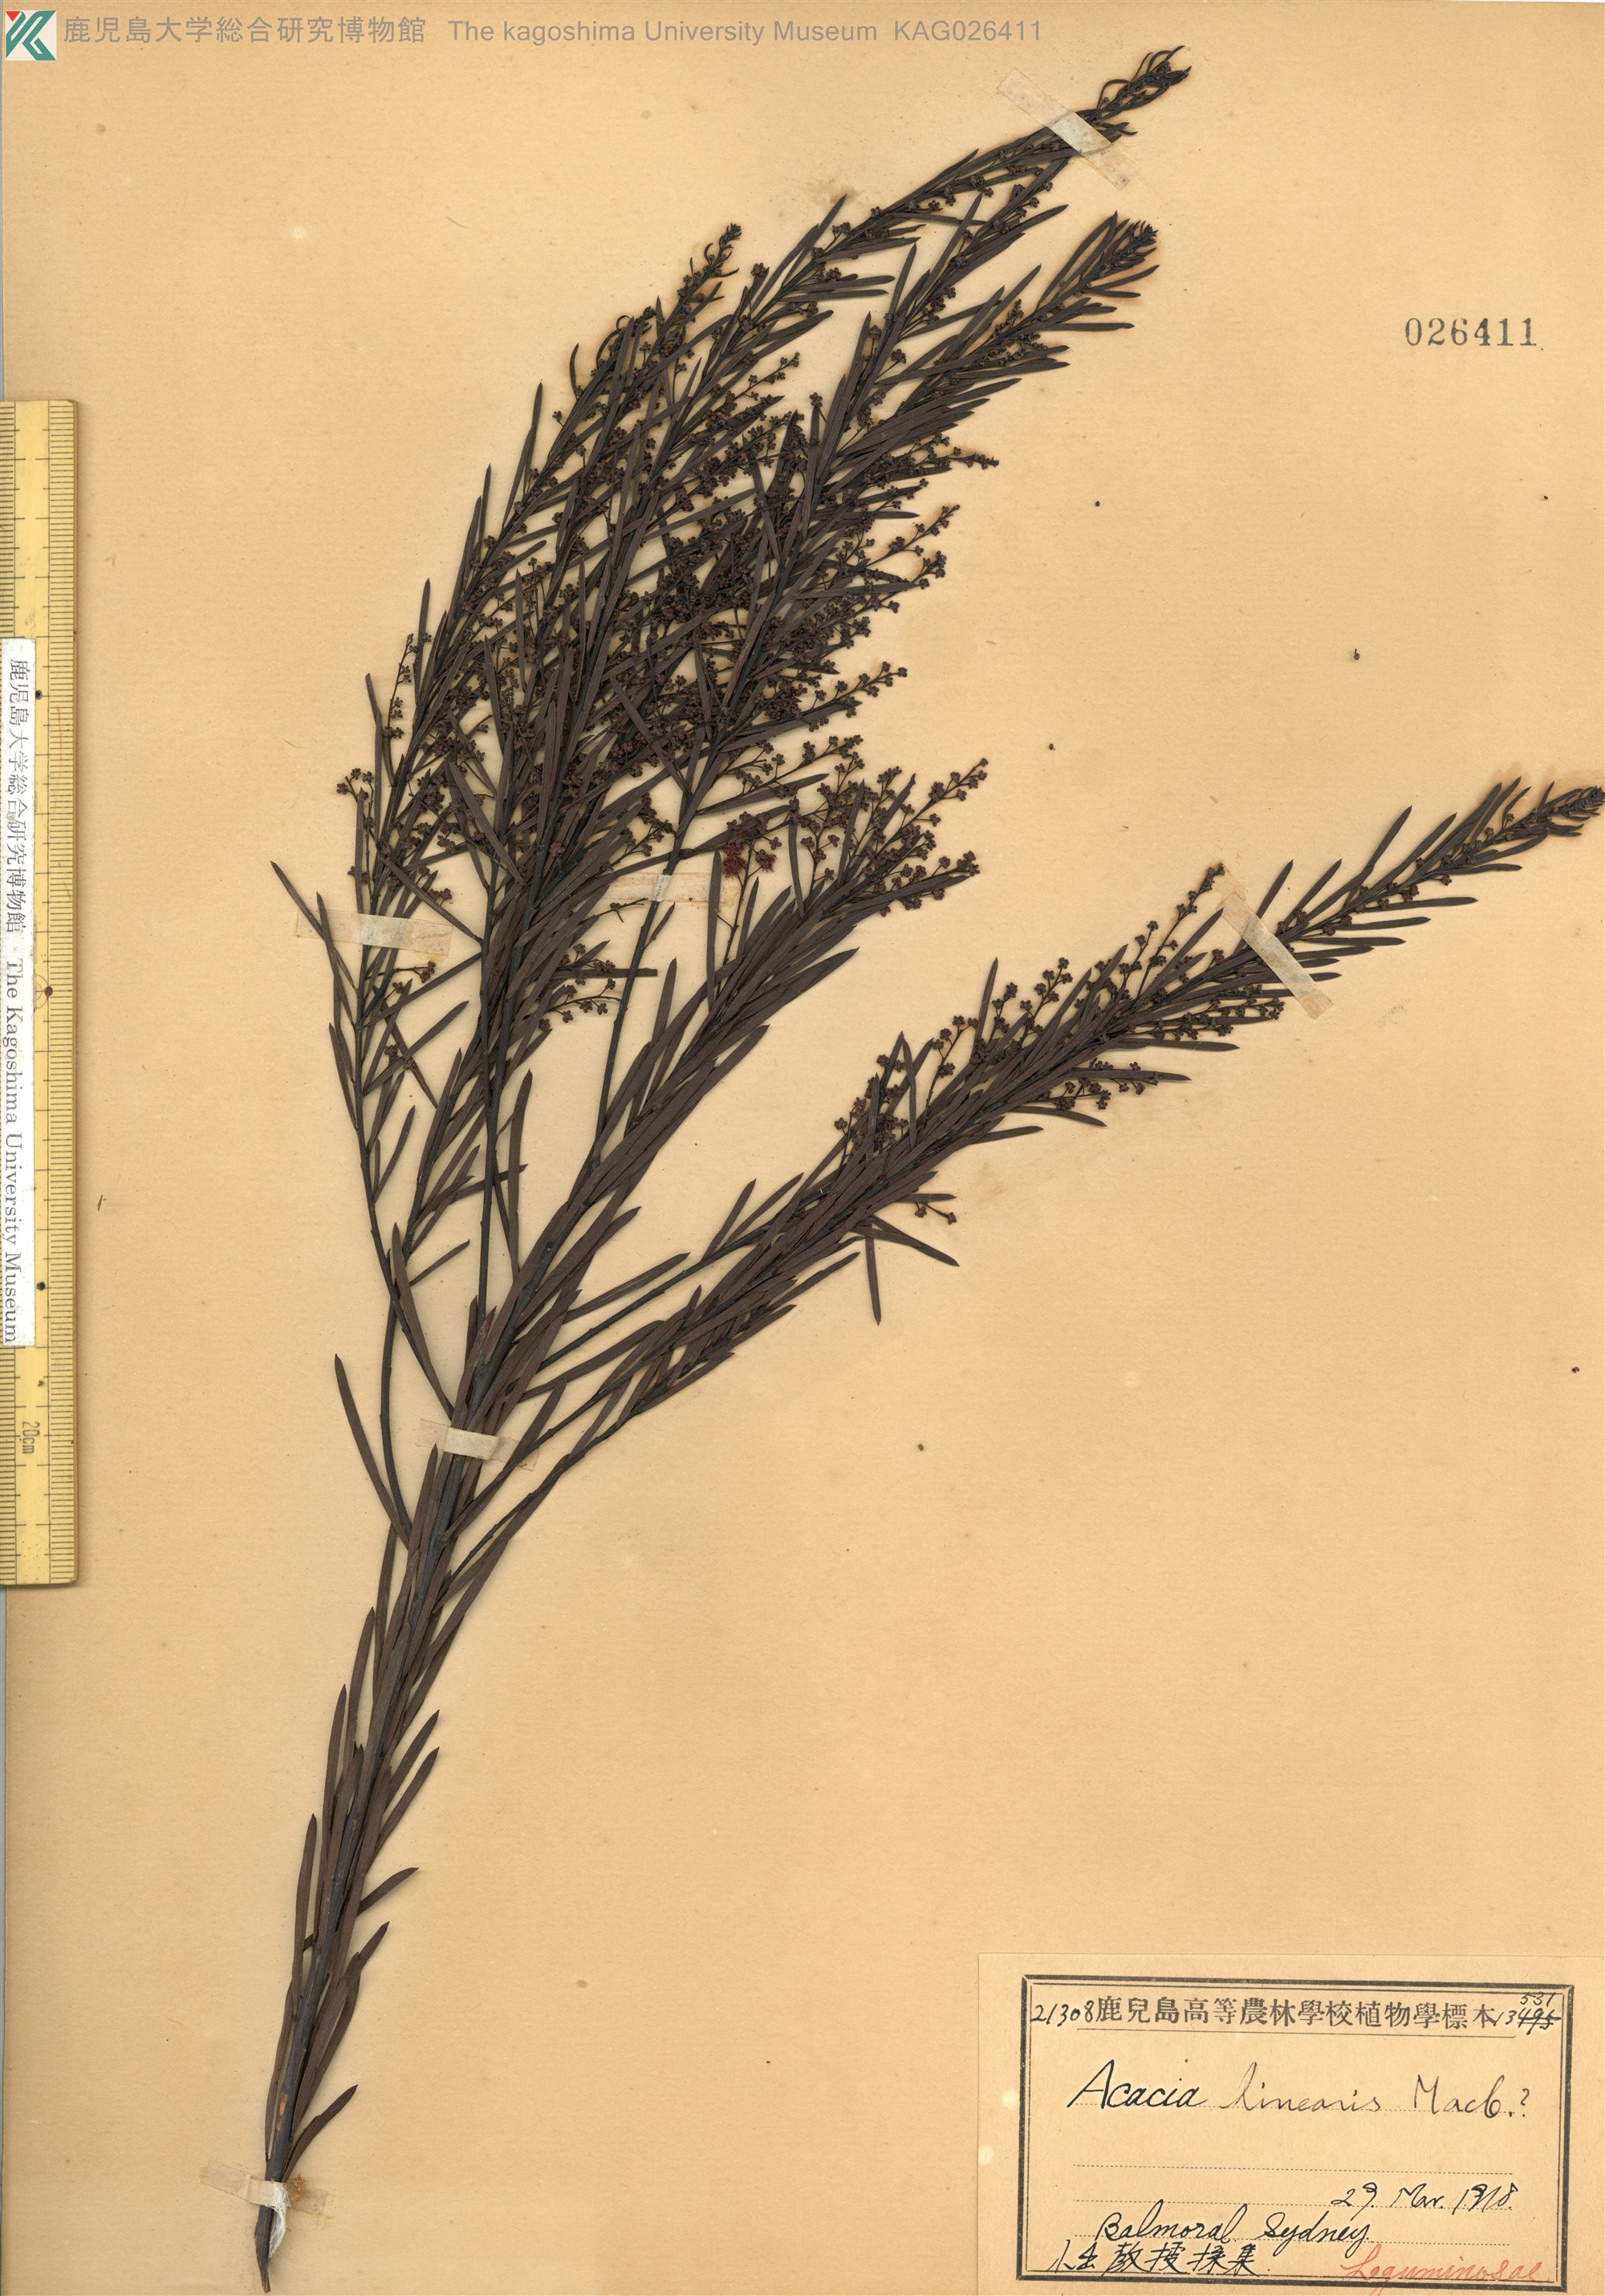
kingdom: Plantae
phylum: Tracheophyta
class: Magnoliopsida
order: Fabales
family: Fabaceae
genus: Acacia
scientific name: Acacia
